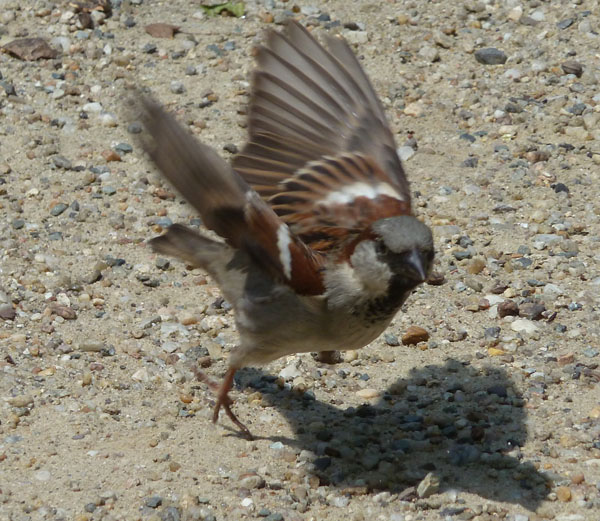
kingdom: Animalia
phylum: Chordata
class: Aves
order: Passeriformes
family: Passeridae
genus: Passer
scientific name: Passer domesticus
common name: House sparrow
